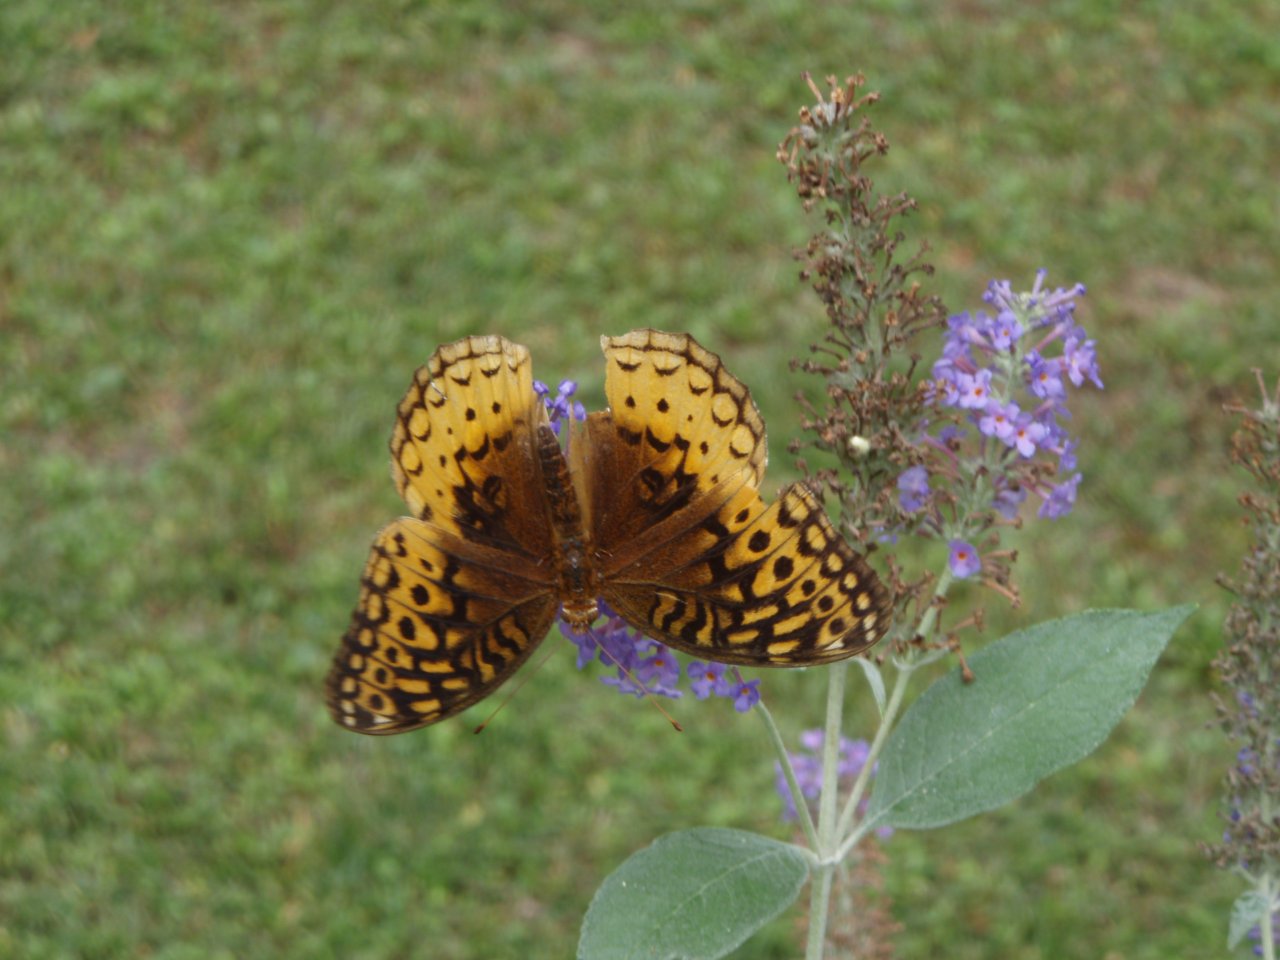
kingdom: Animalia
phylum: Arthropoda
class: Insecta
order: Lepidoptera
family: Nymphalidae
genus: Speyeria
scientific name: Speyeria cybele
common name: Great Spangled Fritillary
